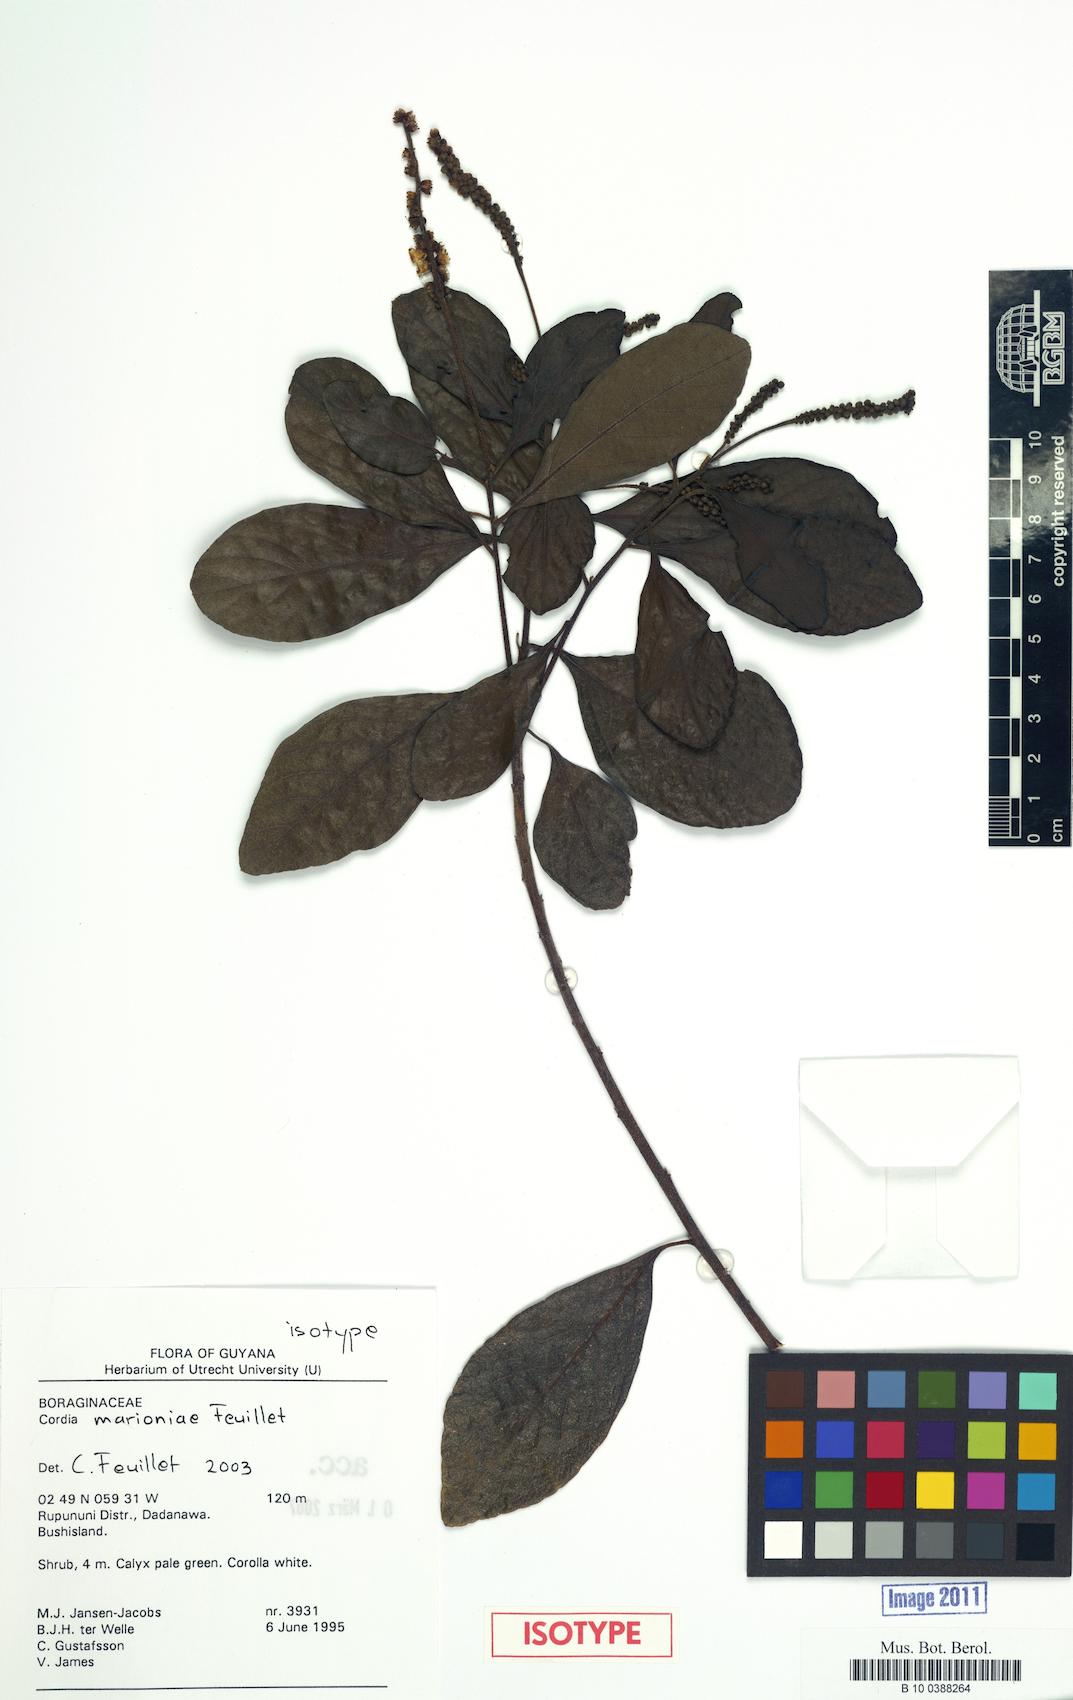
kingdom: Plantae
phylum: Tracheophyta
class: Magnoliopsida
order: Boraginales
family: Cordiaceae
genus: Varronia
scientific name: Varronia marioniae
